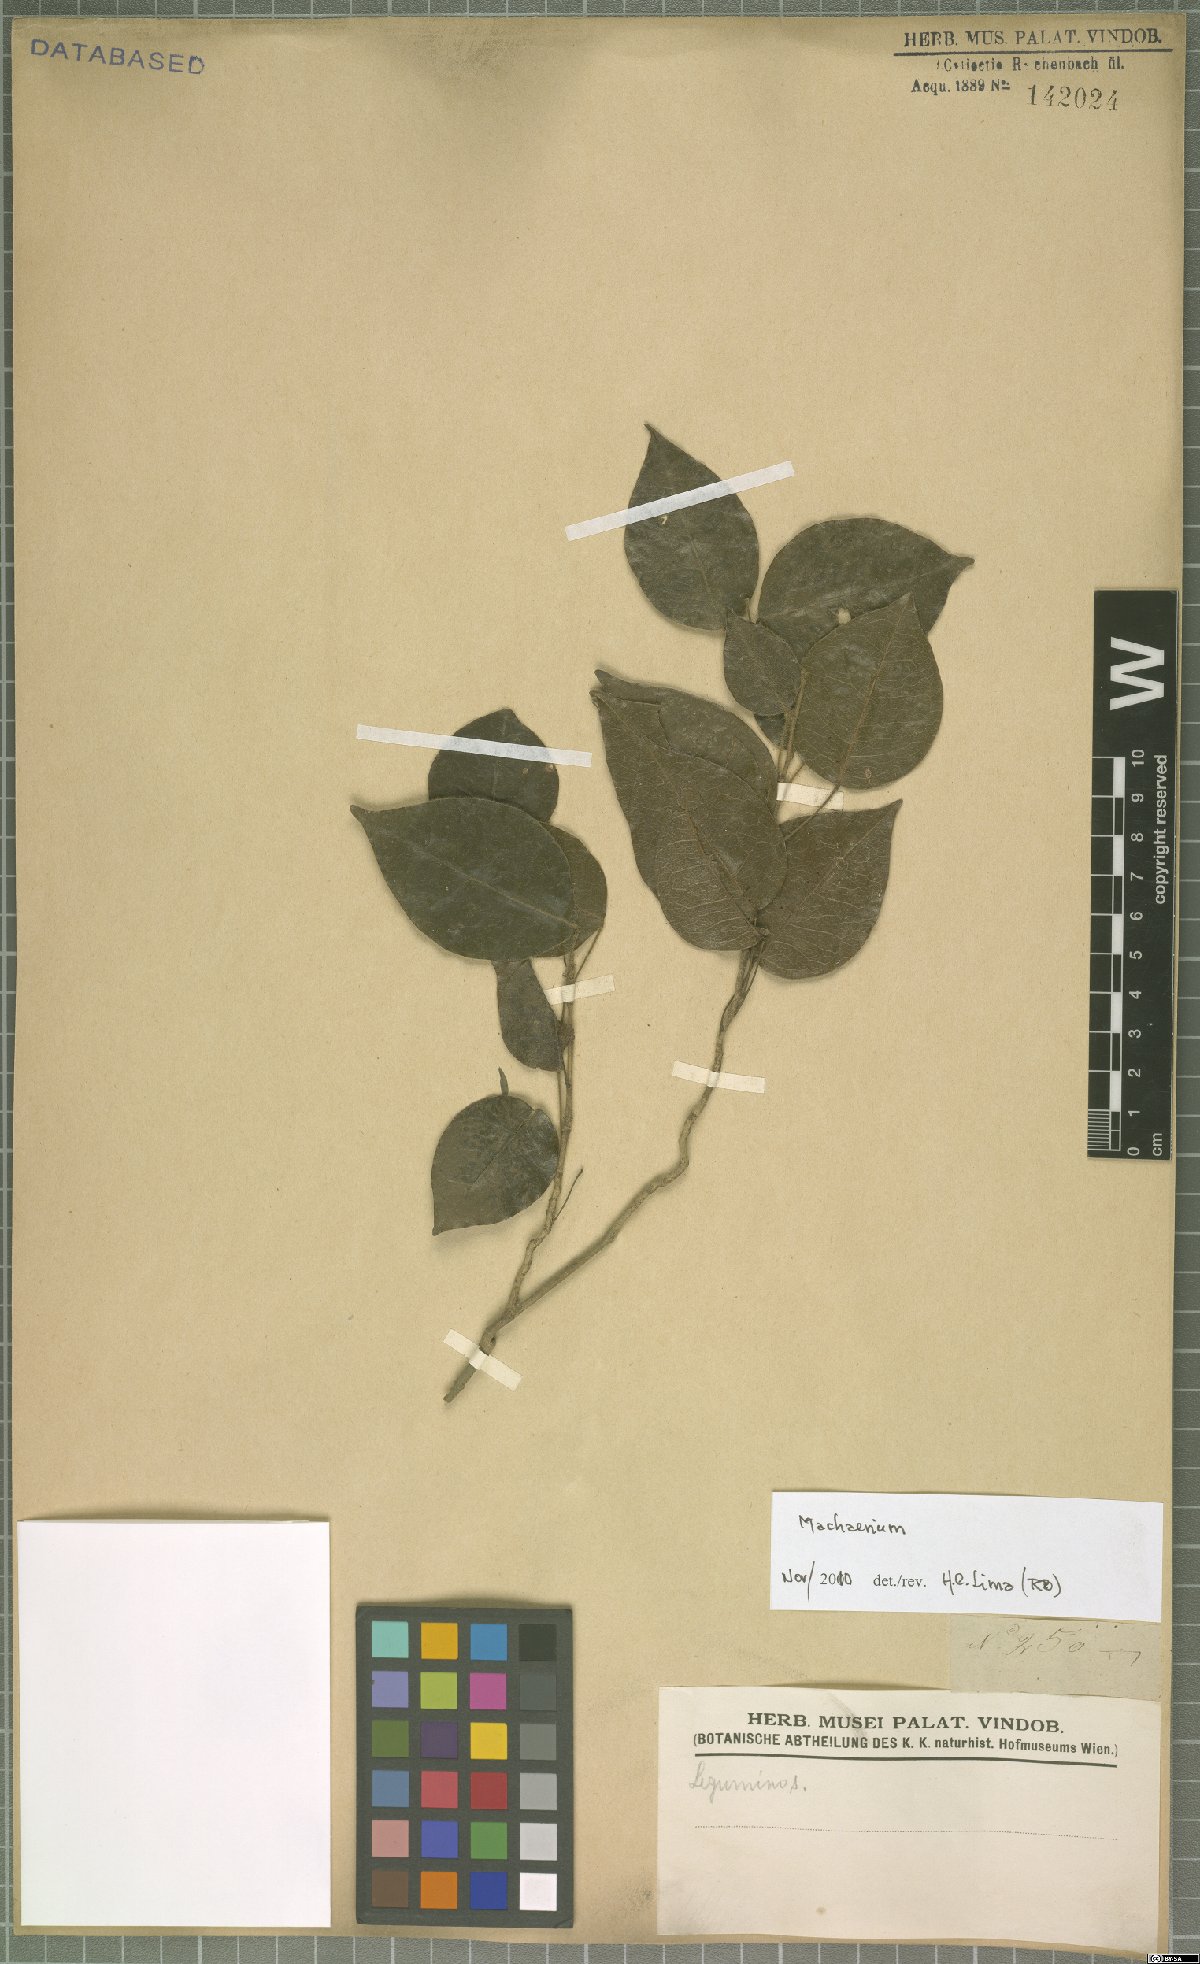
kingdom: Plantae
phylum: Tracheophyta
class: Magnoliopsida
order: Fabales
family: Fabaceae
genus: Machaerium
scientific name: Machaerium
